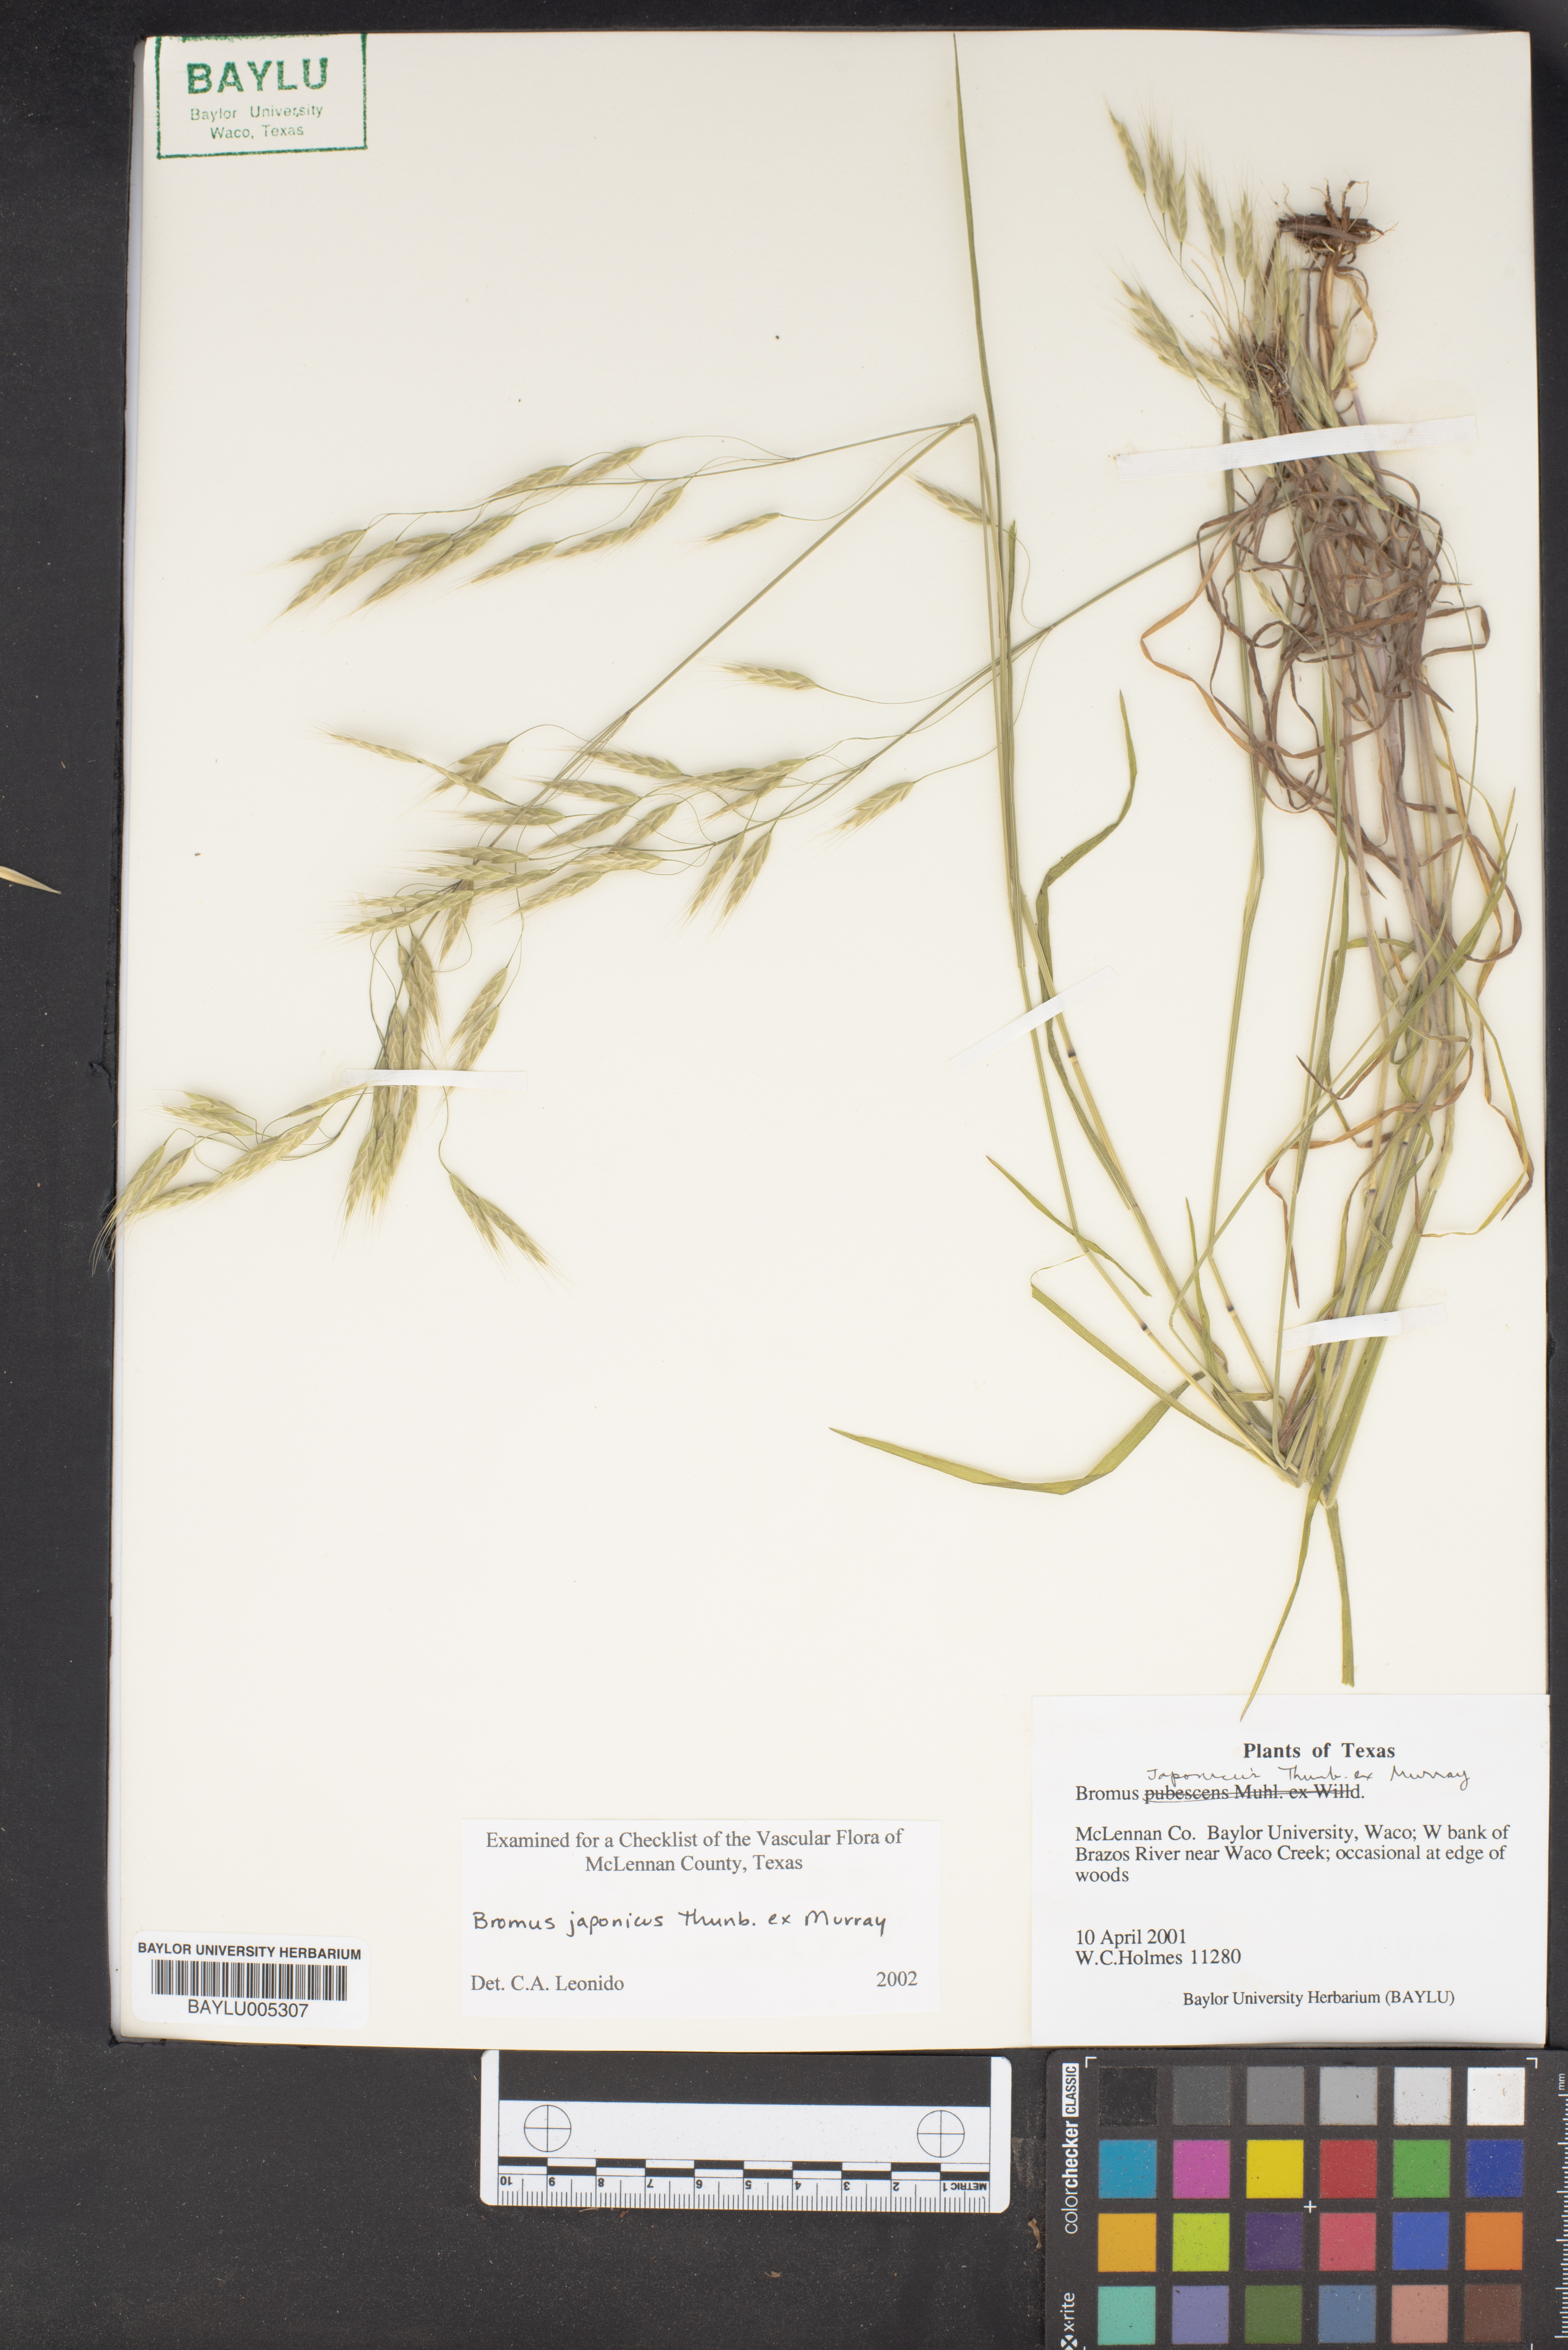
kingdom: Plantae
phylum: Tracheophyta
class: Liliopsida
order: Poales
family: Poaceae
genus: Bromus
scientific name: Bromus japonicus
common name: Japanese brome
